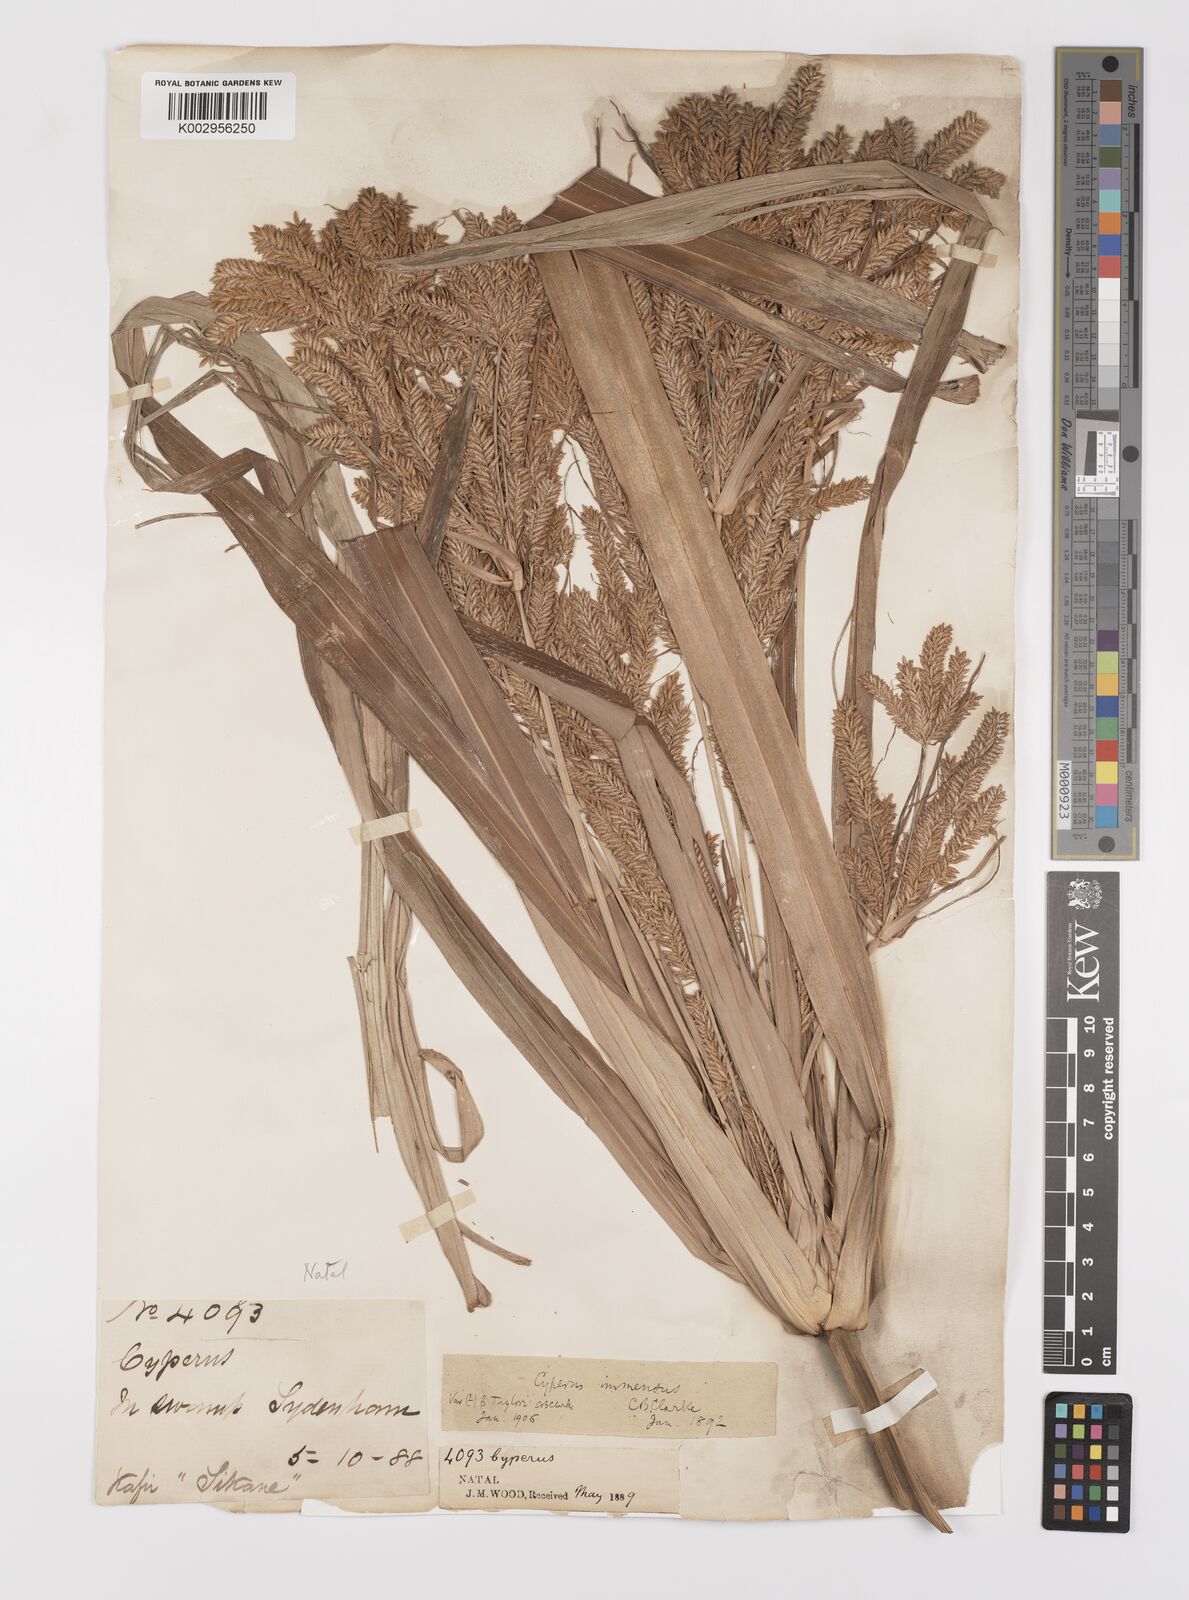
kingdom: Plantae
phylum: Tracheophyta
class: Liliopsida
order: Poales
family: Cyperaceae
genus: Cyperus
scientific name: Cyperus dives
